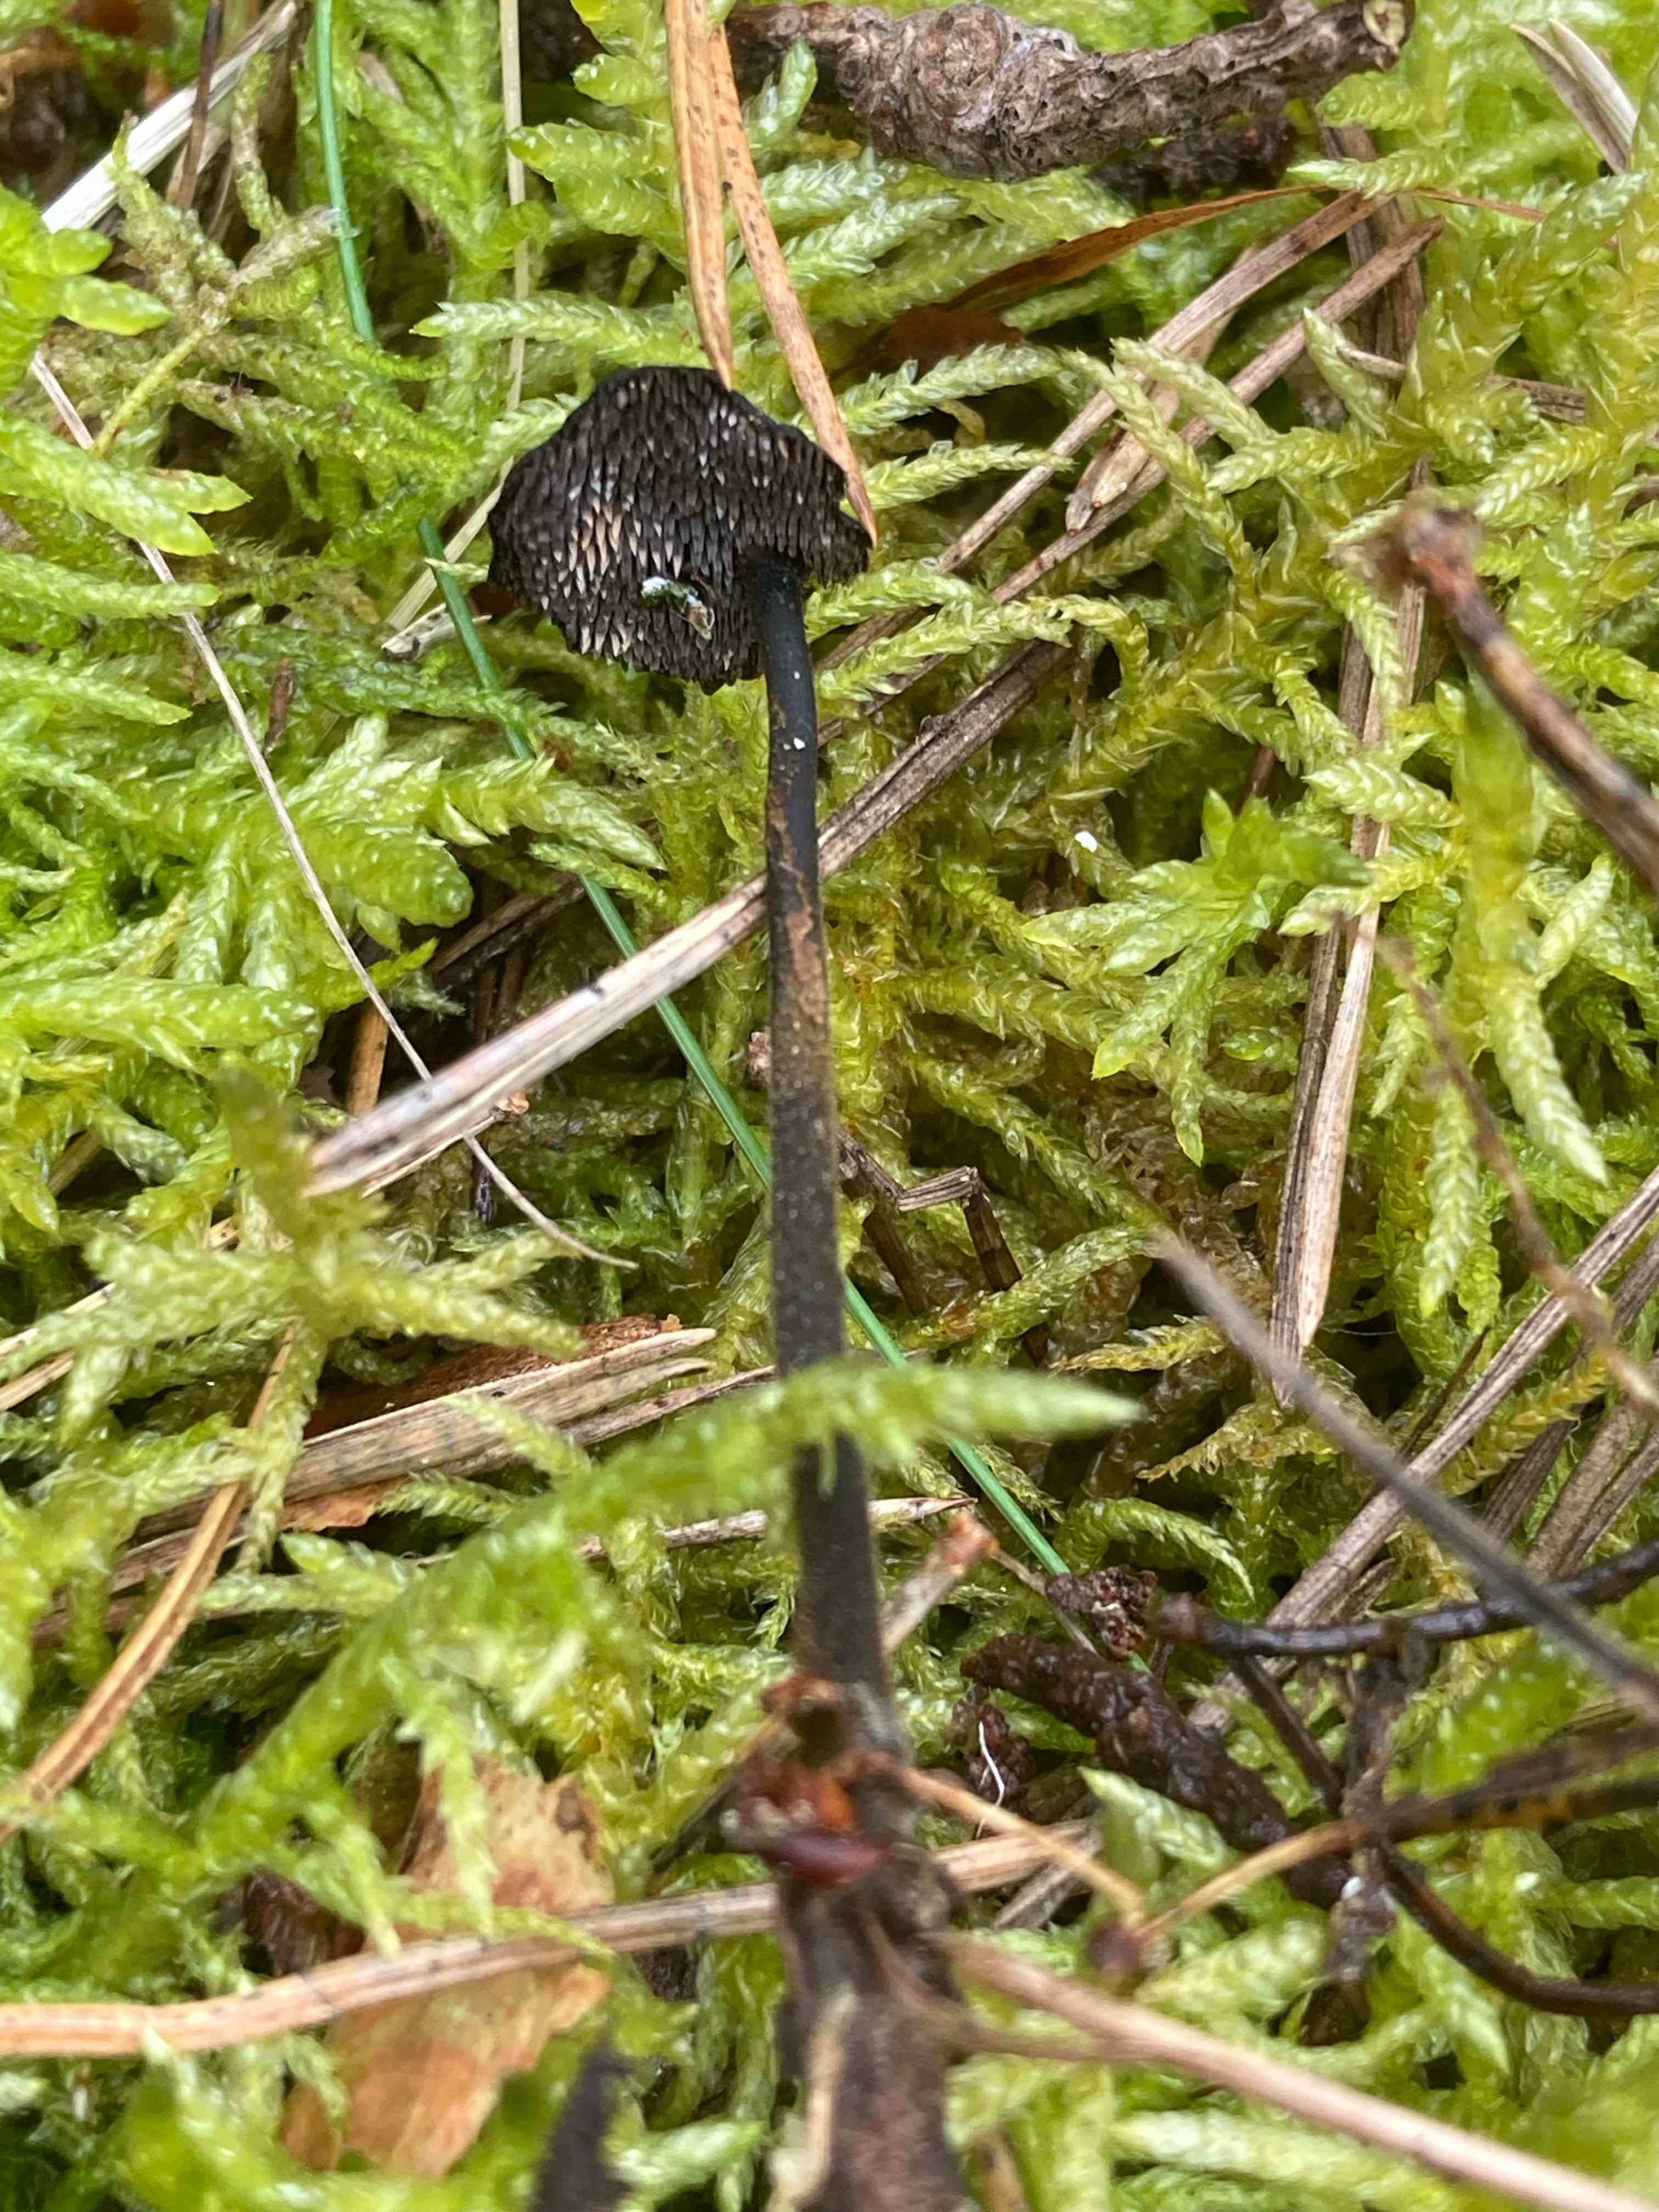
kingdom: Fungi
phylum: Basidiomycota
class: Agaricomycetes
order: Russulales
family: Auriscalpiaceae
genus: Auriscalpium
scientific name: Auriscalpium vulgare
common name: koglepigsvamp
